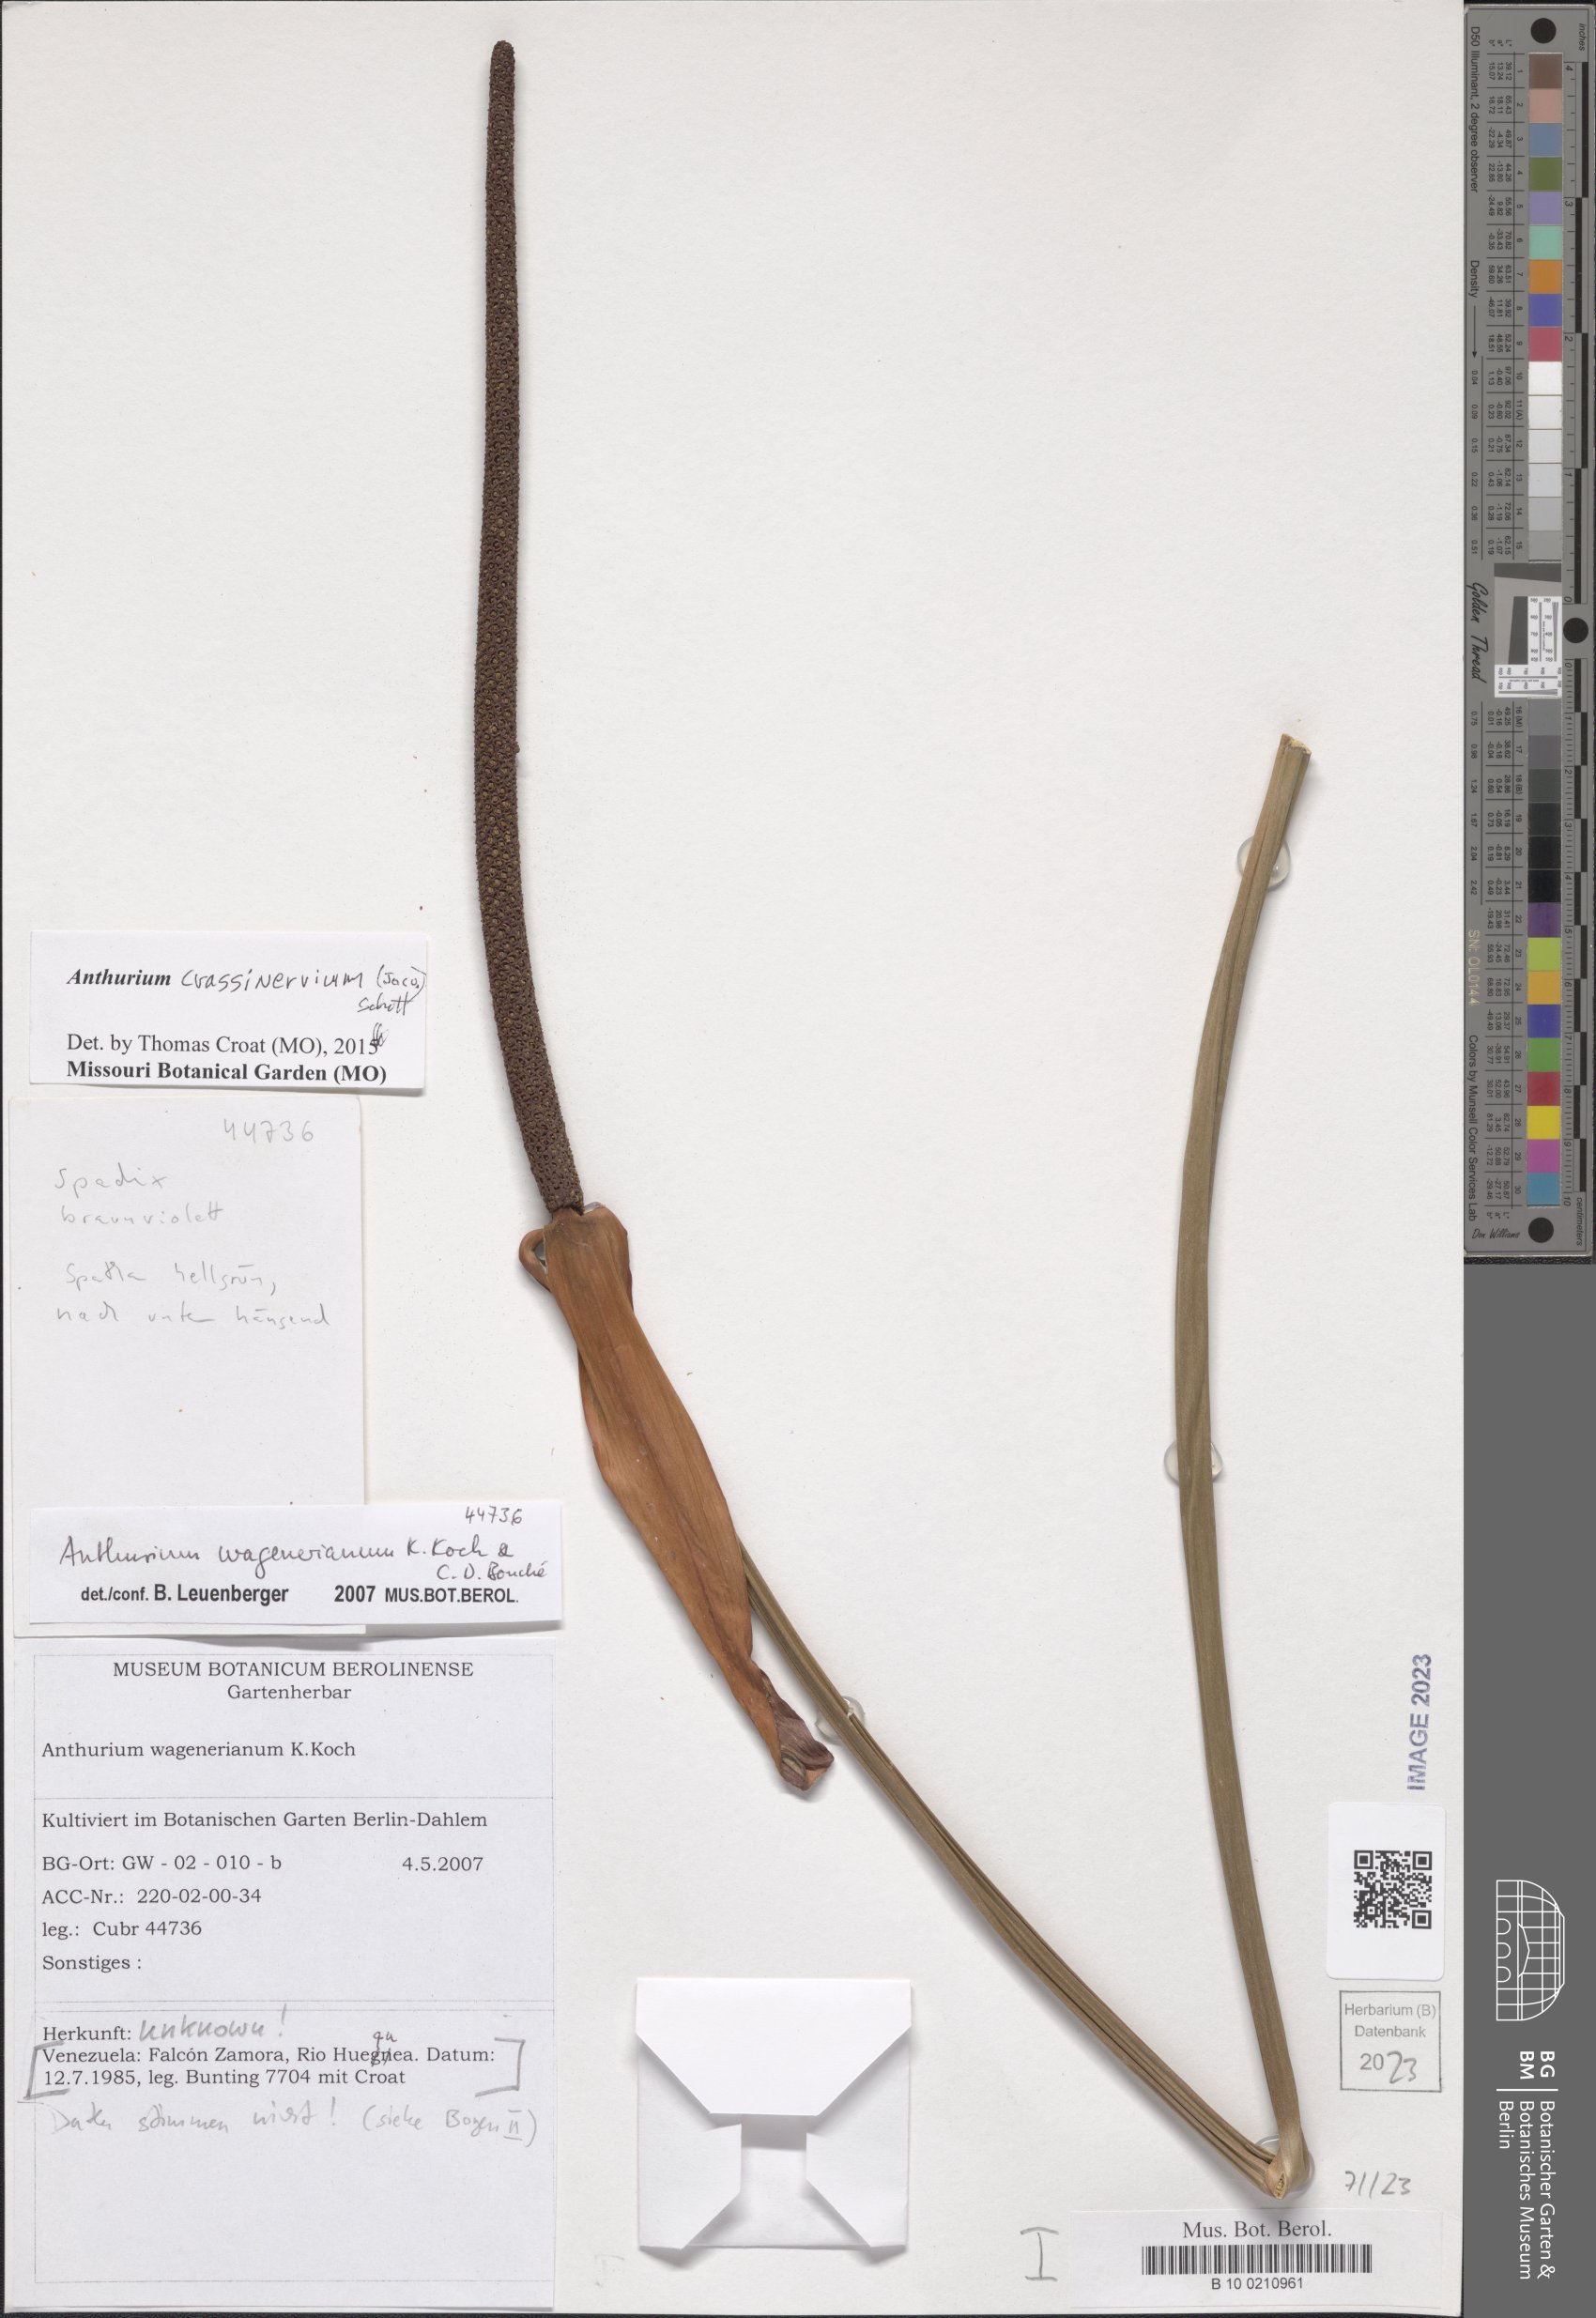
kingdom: Plantae
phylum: Tracheophyta
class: Liliopsida
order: Alismatales
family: Araceae
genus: Anthurium
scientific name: Anthurium crassinervium
